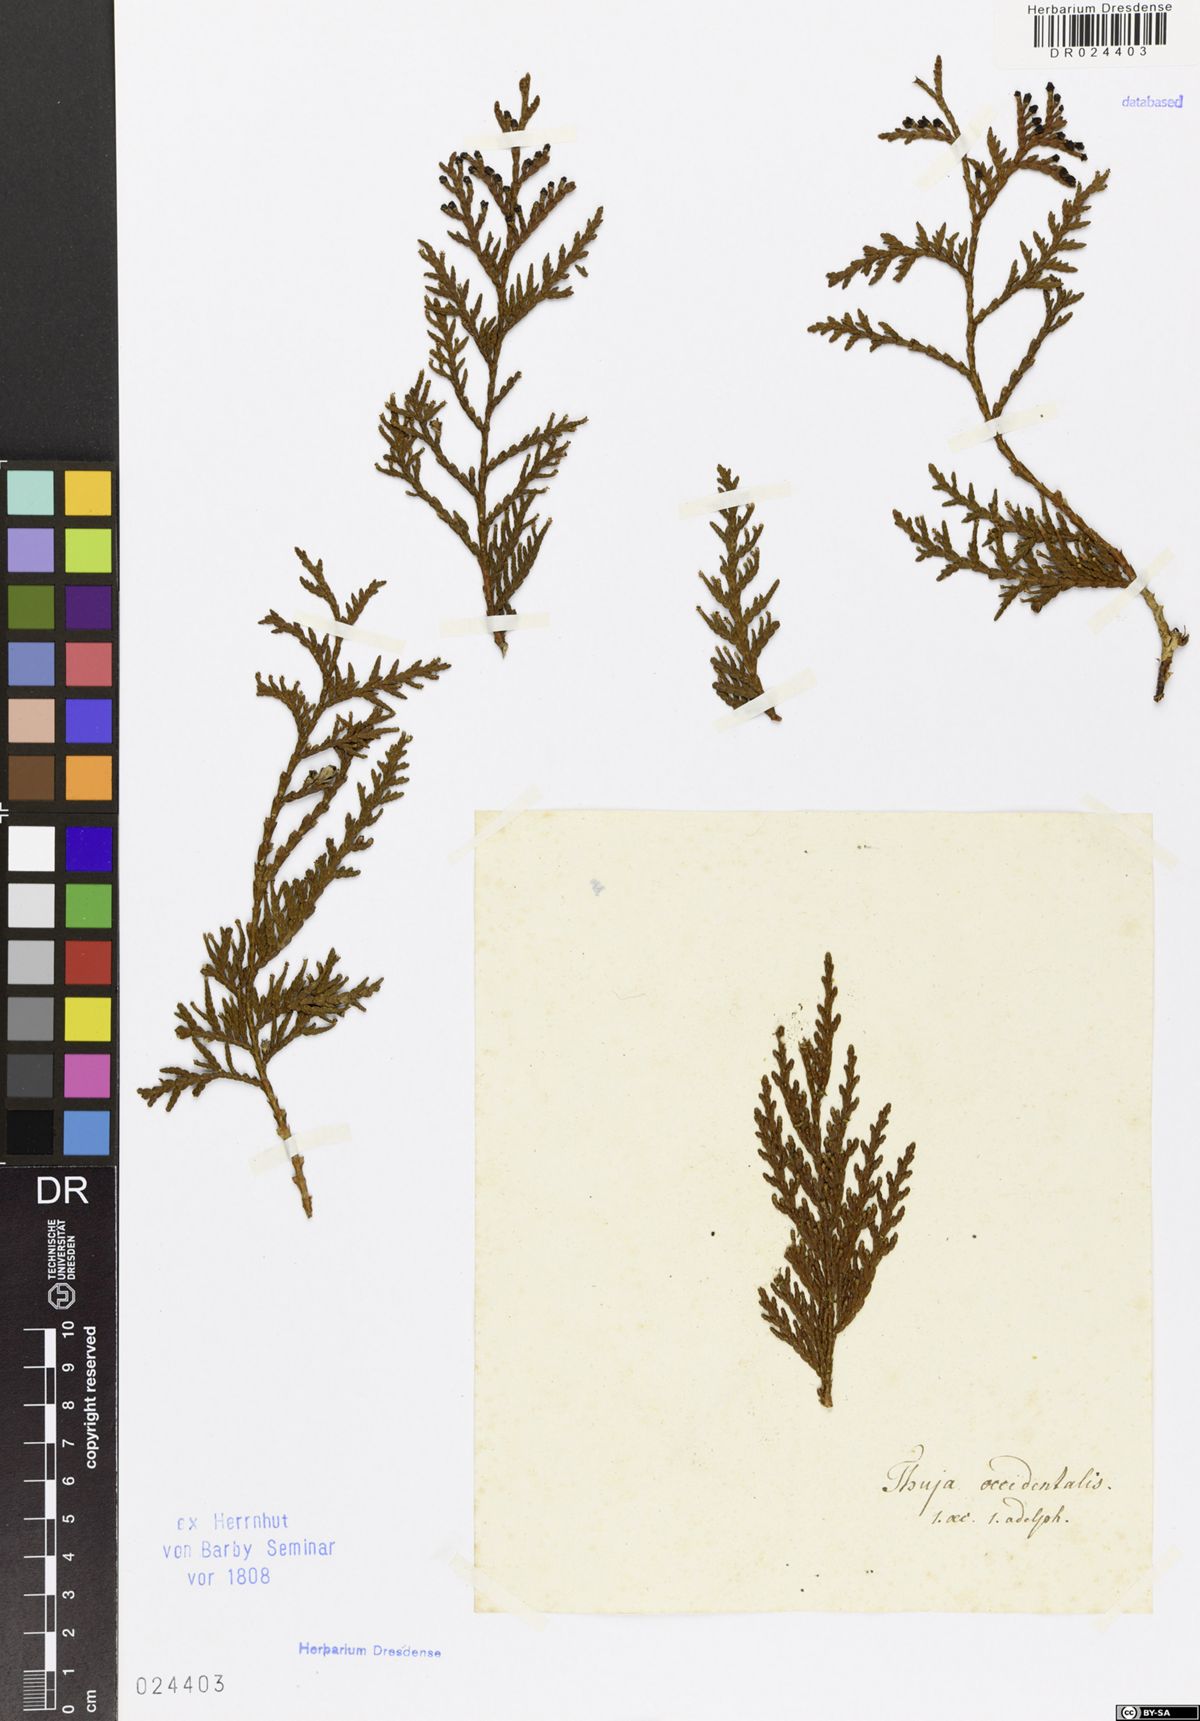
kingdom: Plantae
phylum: Tracheophyta
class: Pinopsida
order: Pinales
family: Cupressaceae
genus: Thuja
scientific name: Thuja occidentalis
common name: Northern white-cedar
